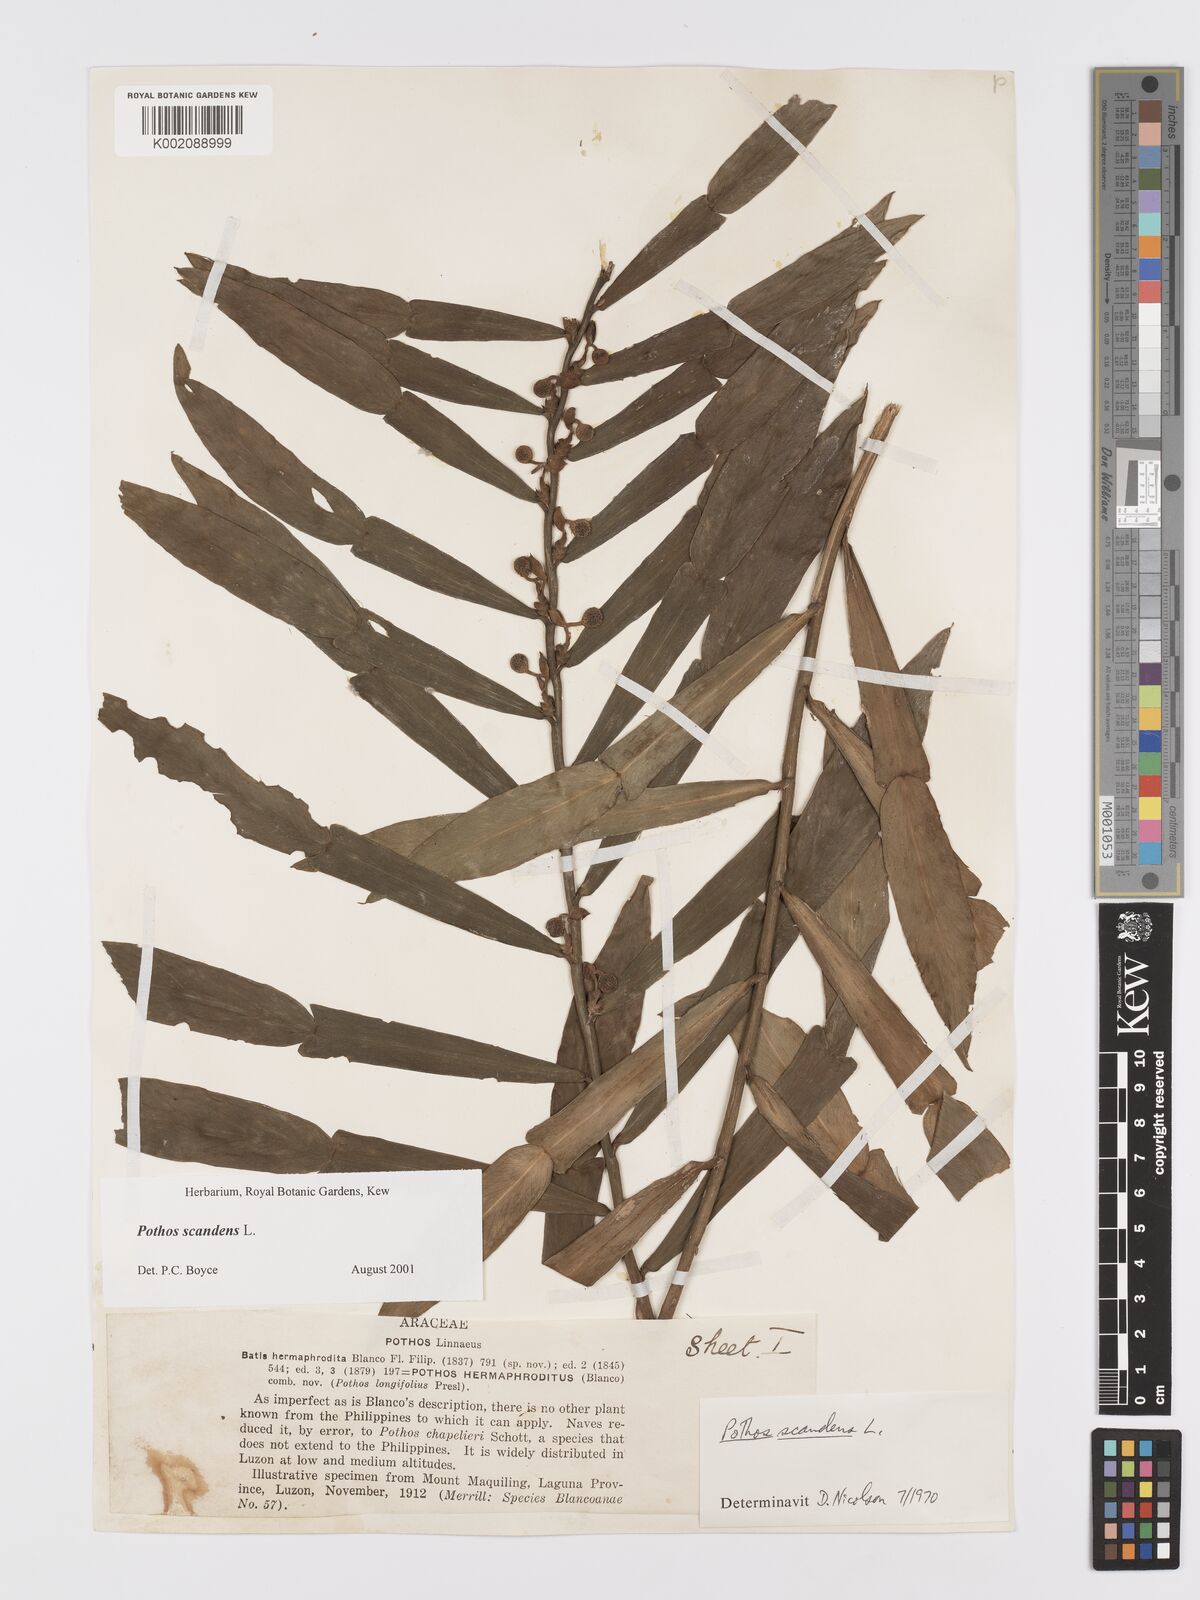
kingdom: Plantae
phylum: Tracheophyta
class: Liliopsida
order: Alismatales
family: Araceae
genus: Pothos
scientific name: Pothos scandens
